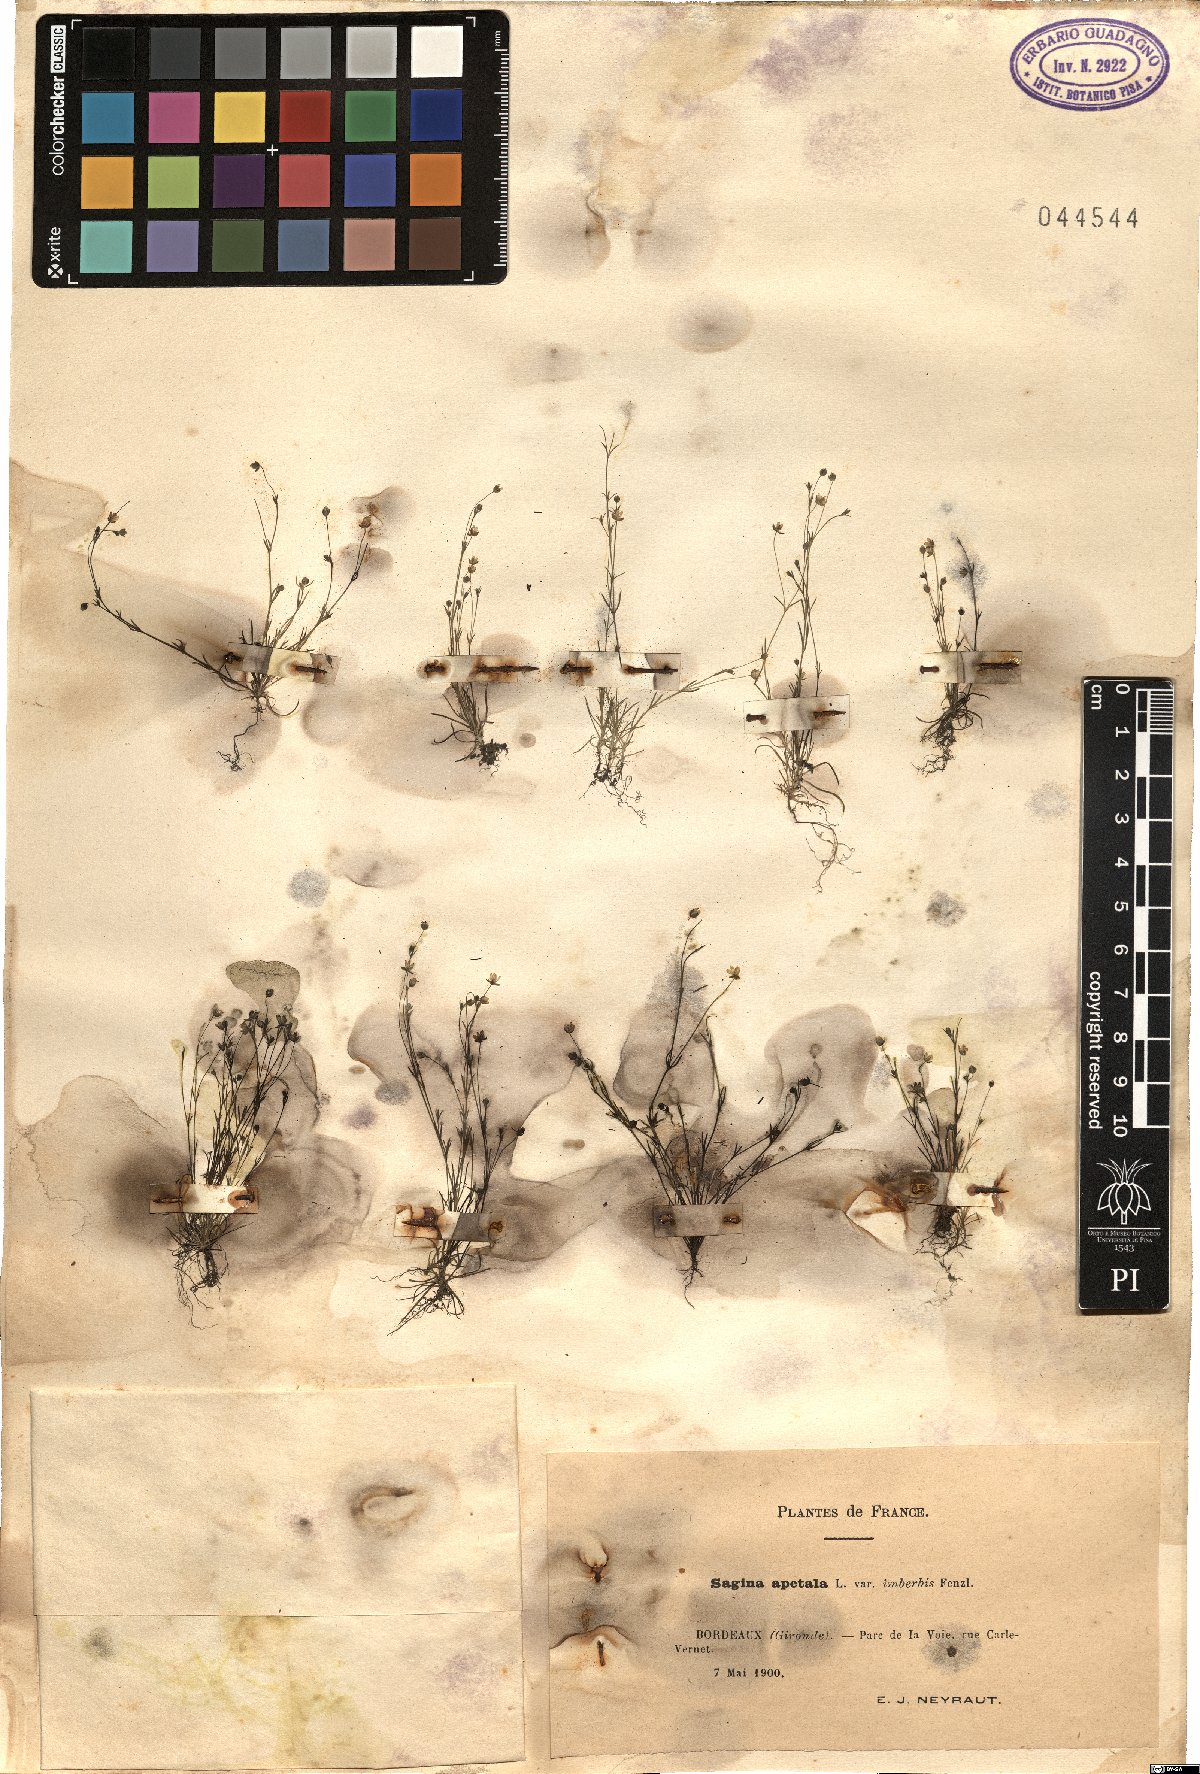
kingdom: Plantae
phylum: Tracheophyta
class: Magnoliopsida
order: Caryophyllales
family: Caryophyllaceae
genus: Sagina
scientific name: Sagina micropetala
